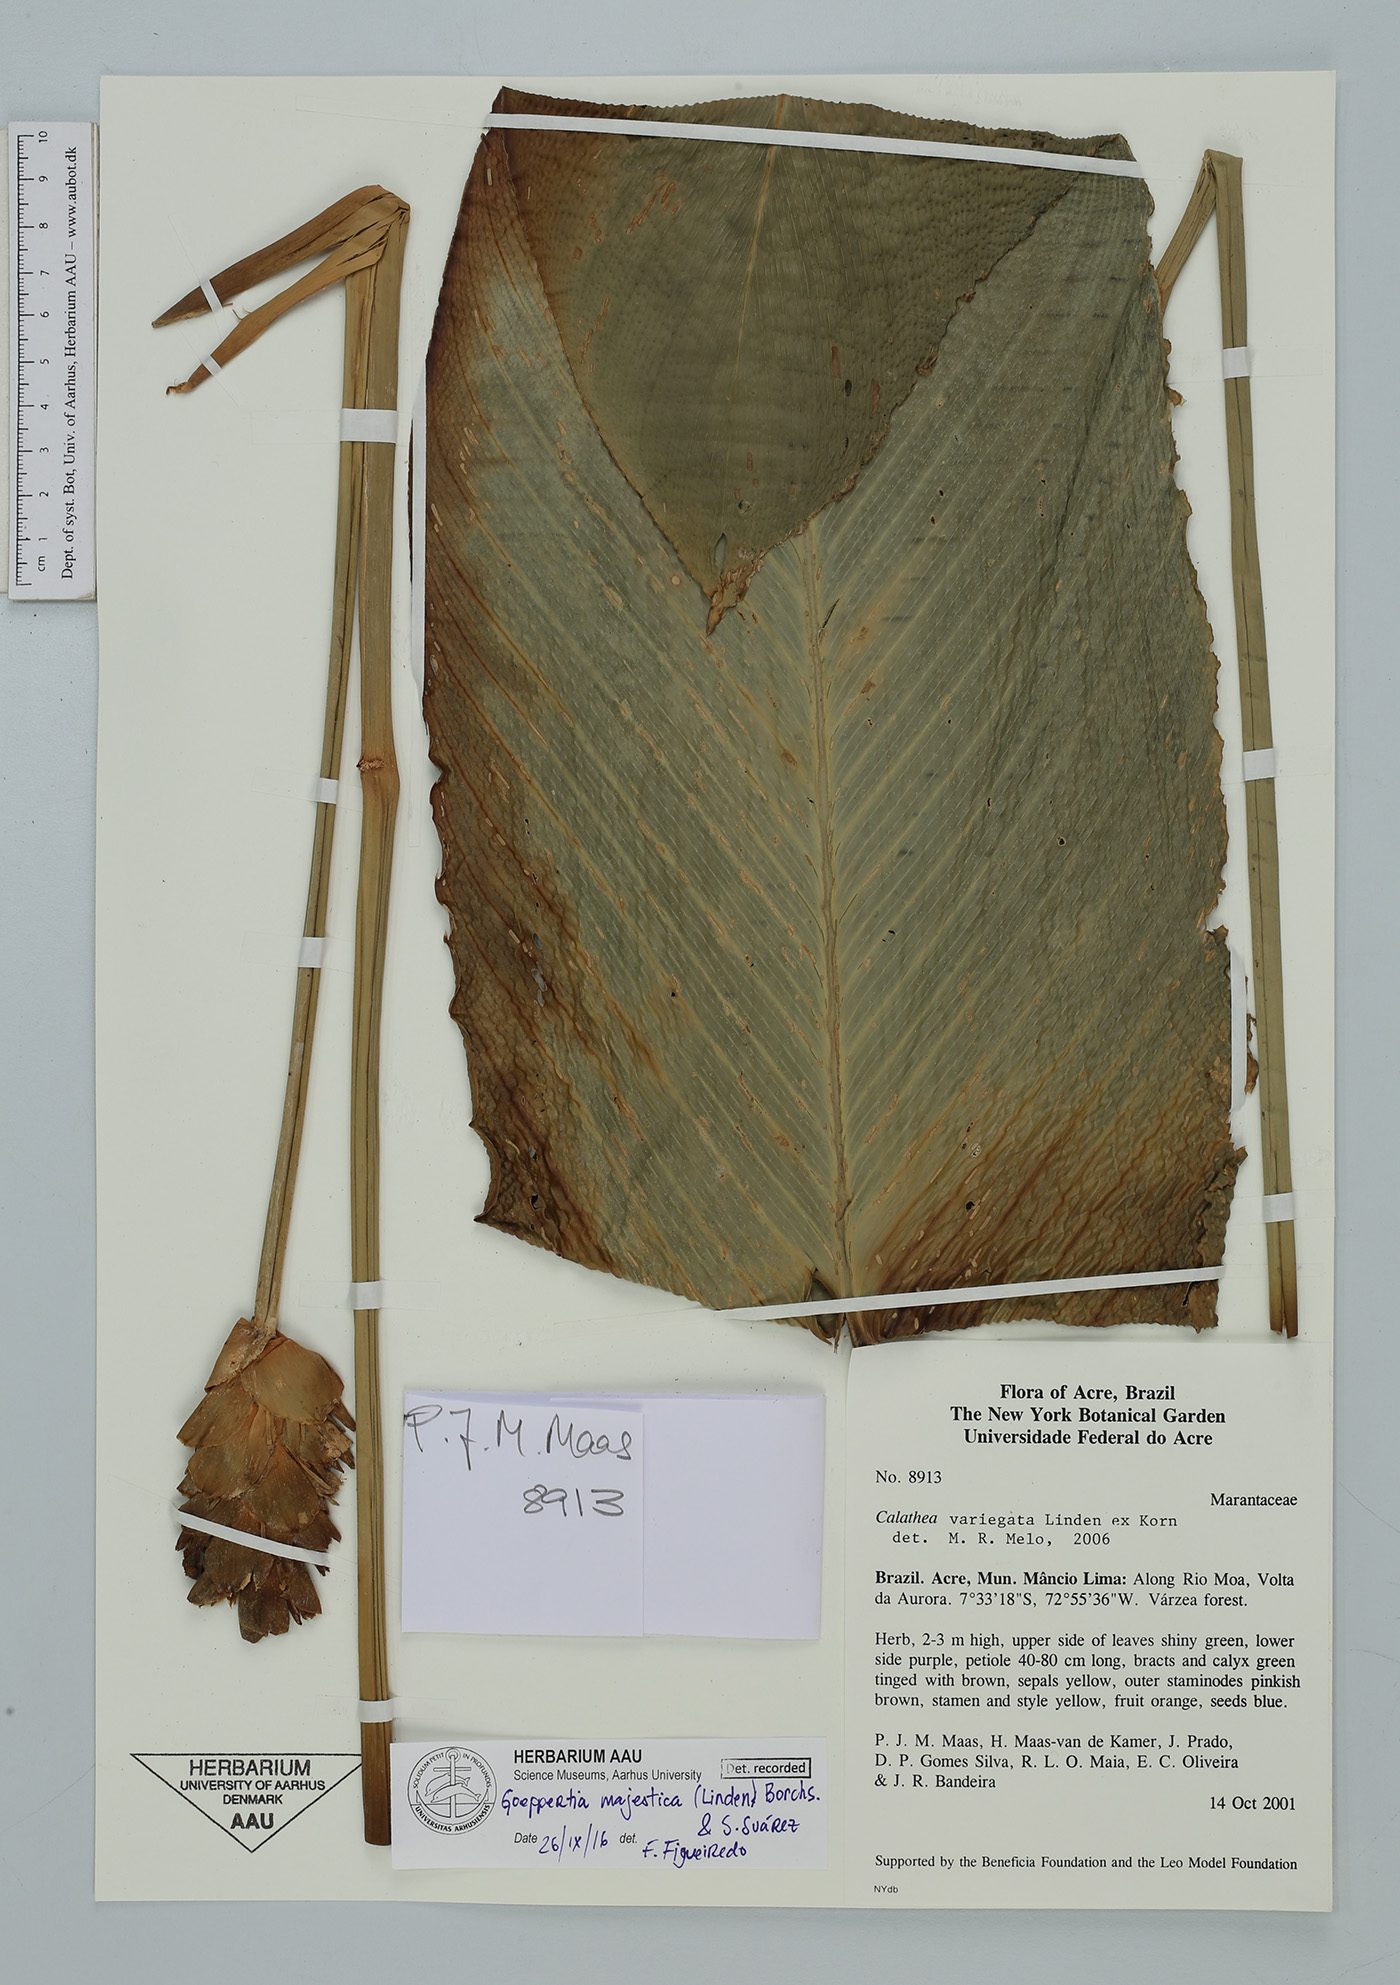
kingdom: Plantae
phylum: Tracheophyta
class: Liliopsida
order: Zingiberales
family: Marantaceae
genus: Goeppertia
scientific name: Goeppertia majestica
